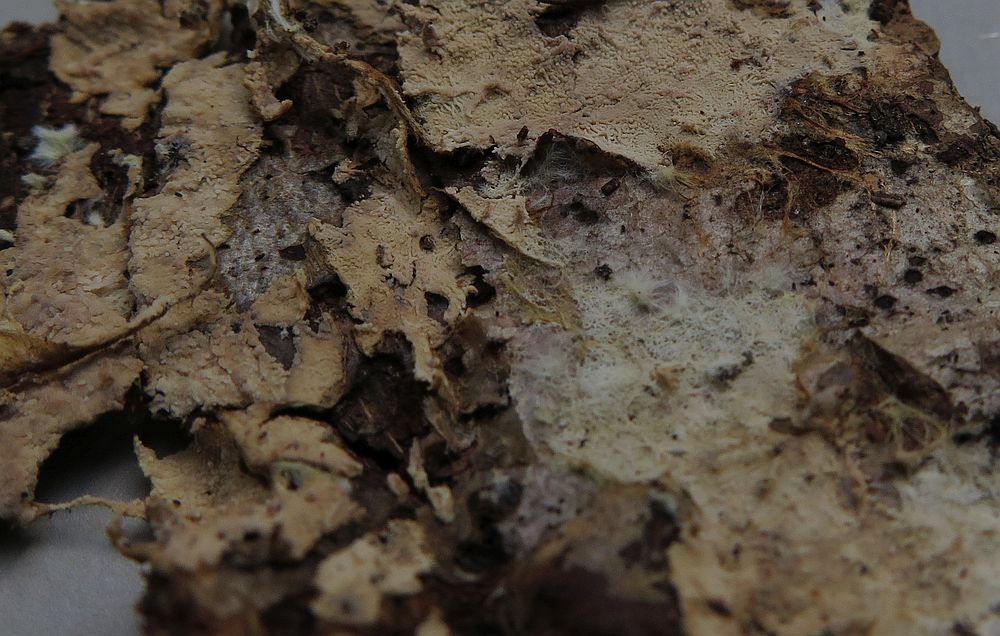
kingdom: Fungi
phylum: Basidiomycota
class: Agaricomycetes
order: Russulales
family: Xenasmataceae
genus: Xenasmatella
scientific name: Xenasmatella vaga
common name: svovl-strenghinde
